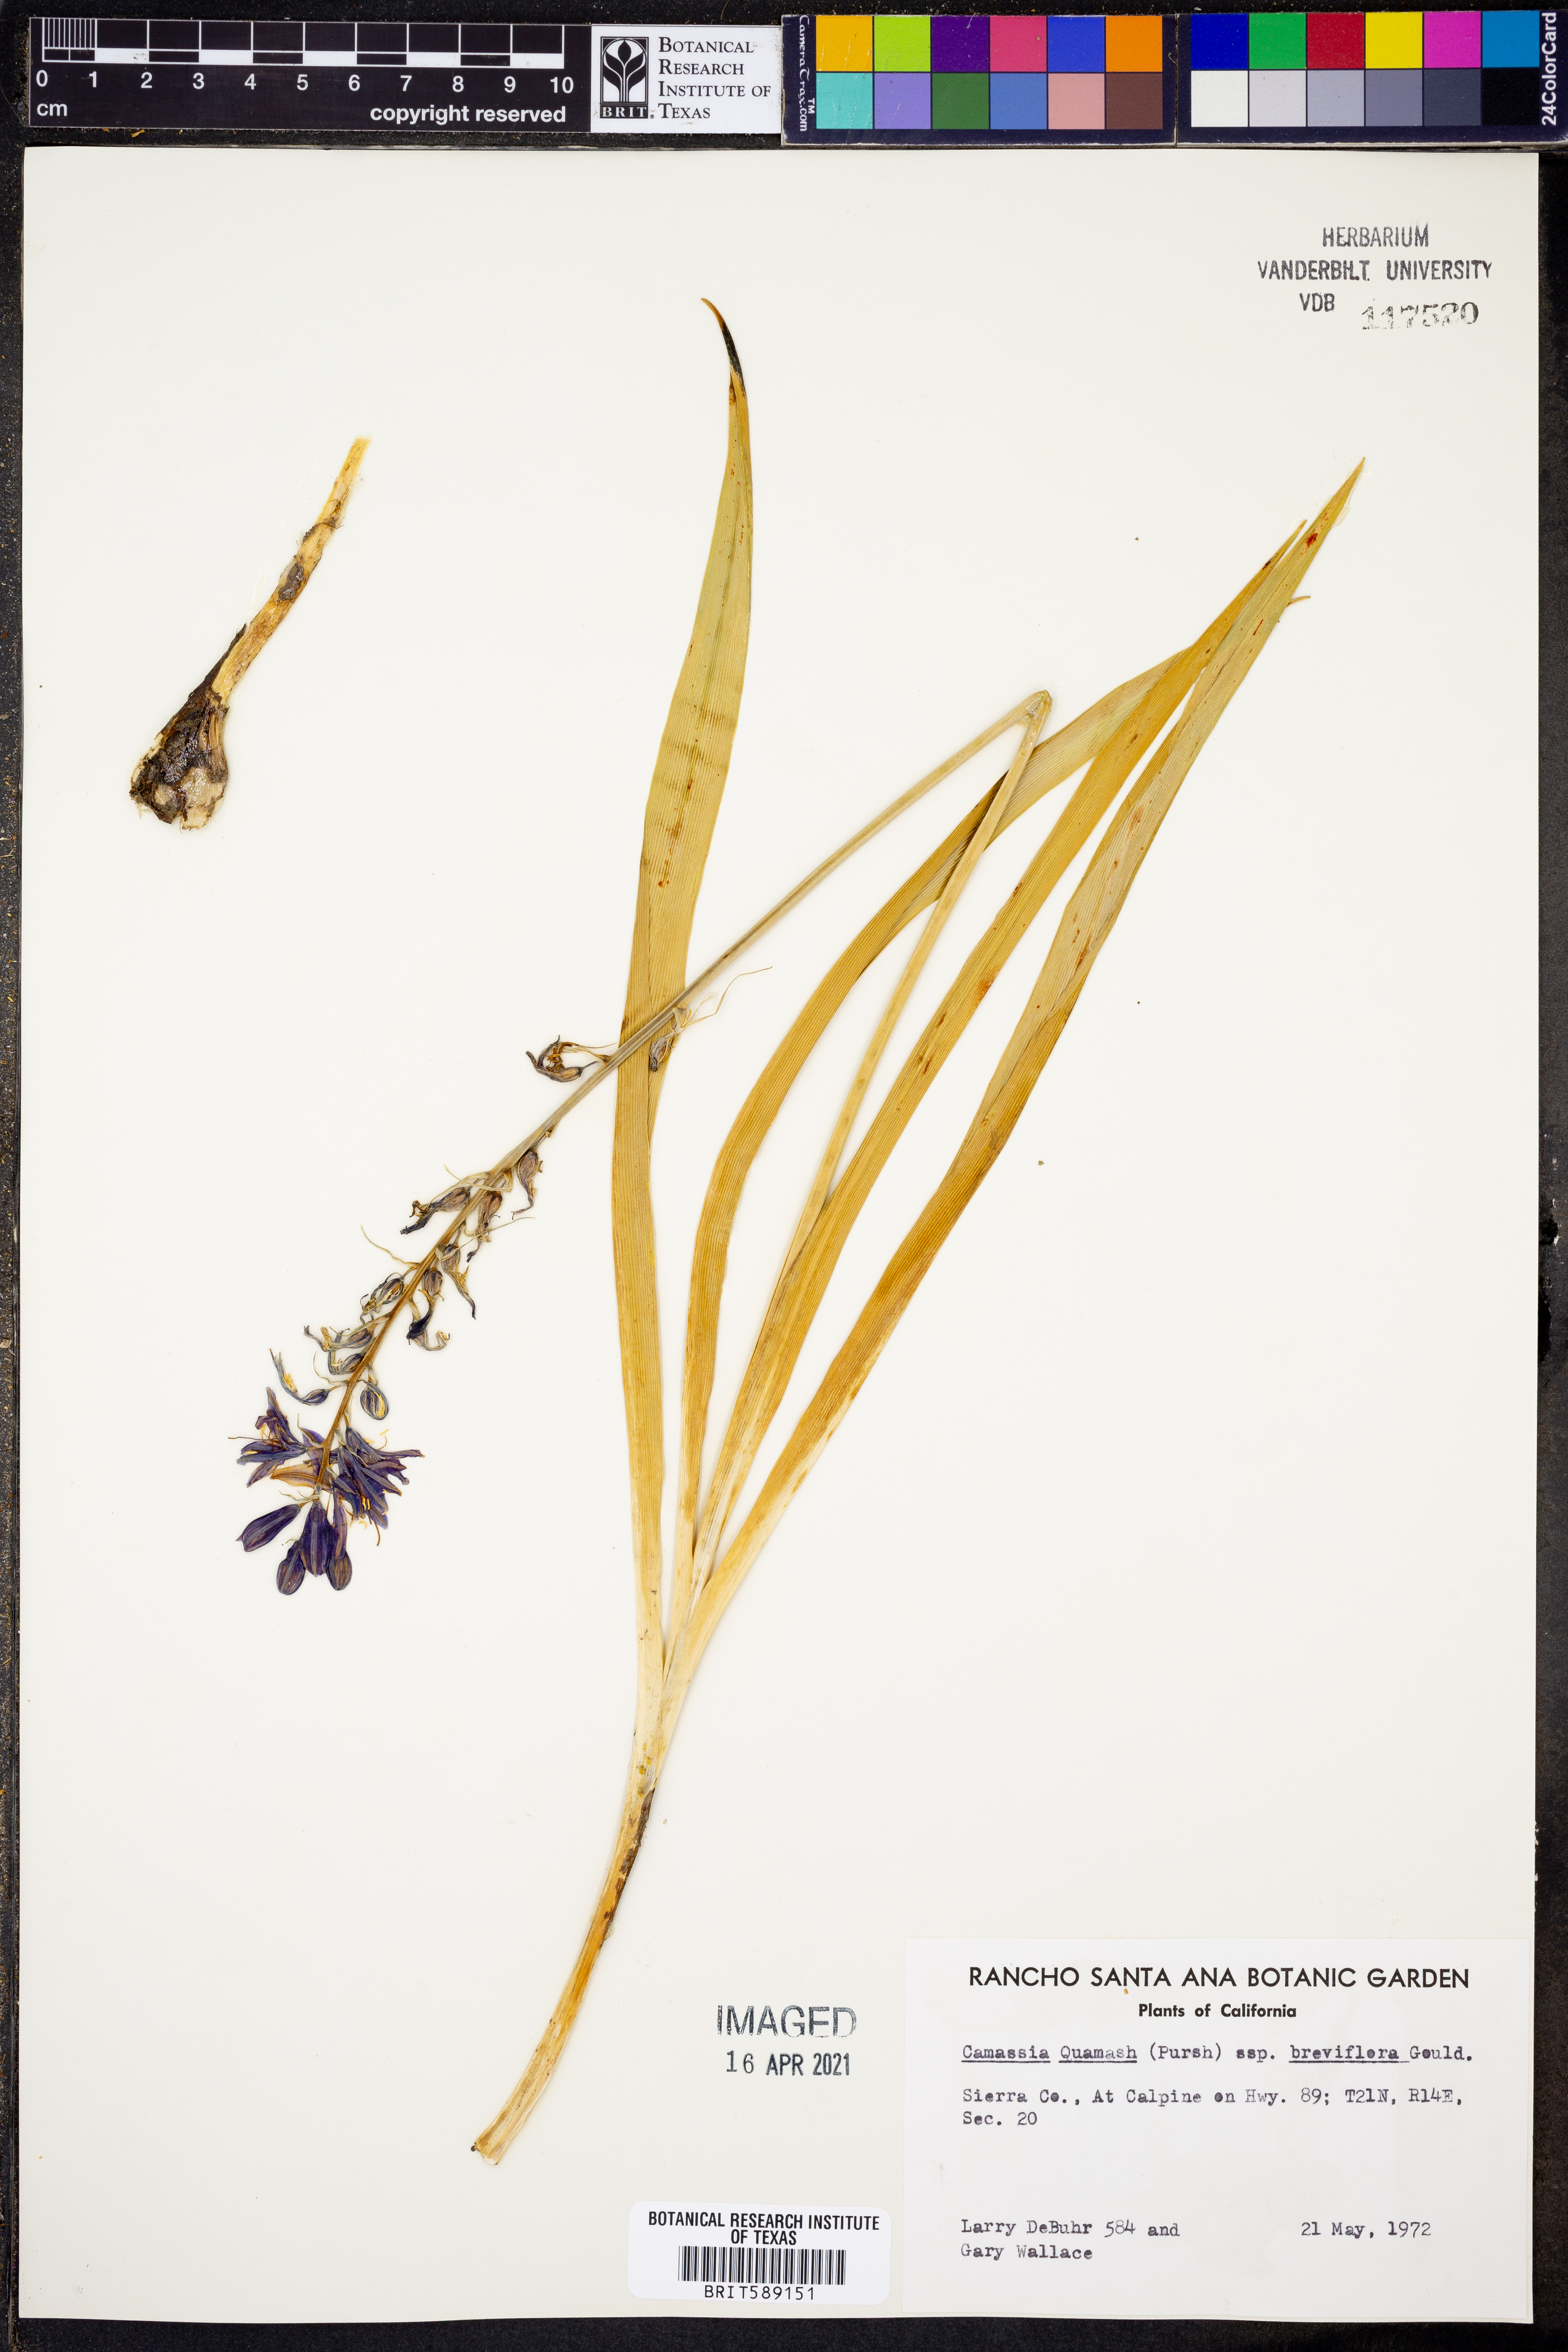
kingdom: Plantae
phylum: Tracheophyta
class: Liliopsida
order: Asparagales
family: Asparagaceae
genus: Camassia
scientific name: Camassia quamash
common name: Common camas
